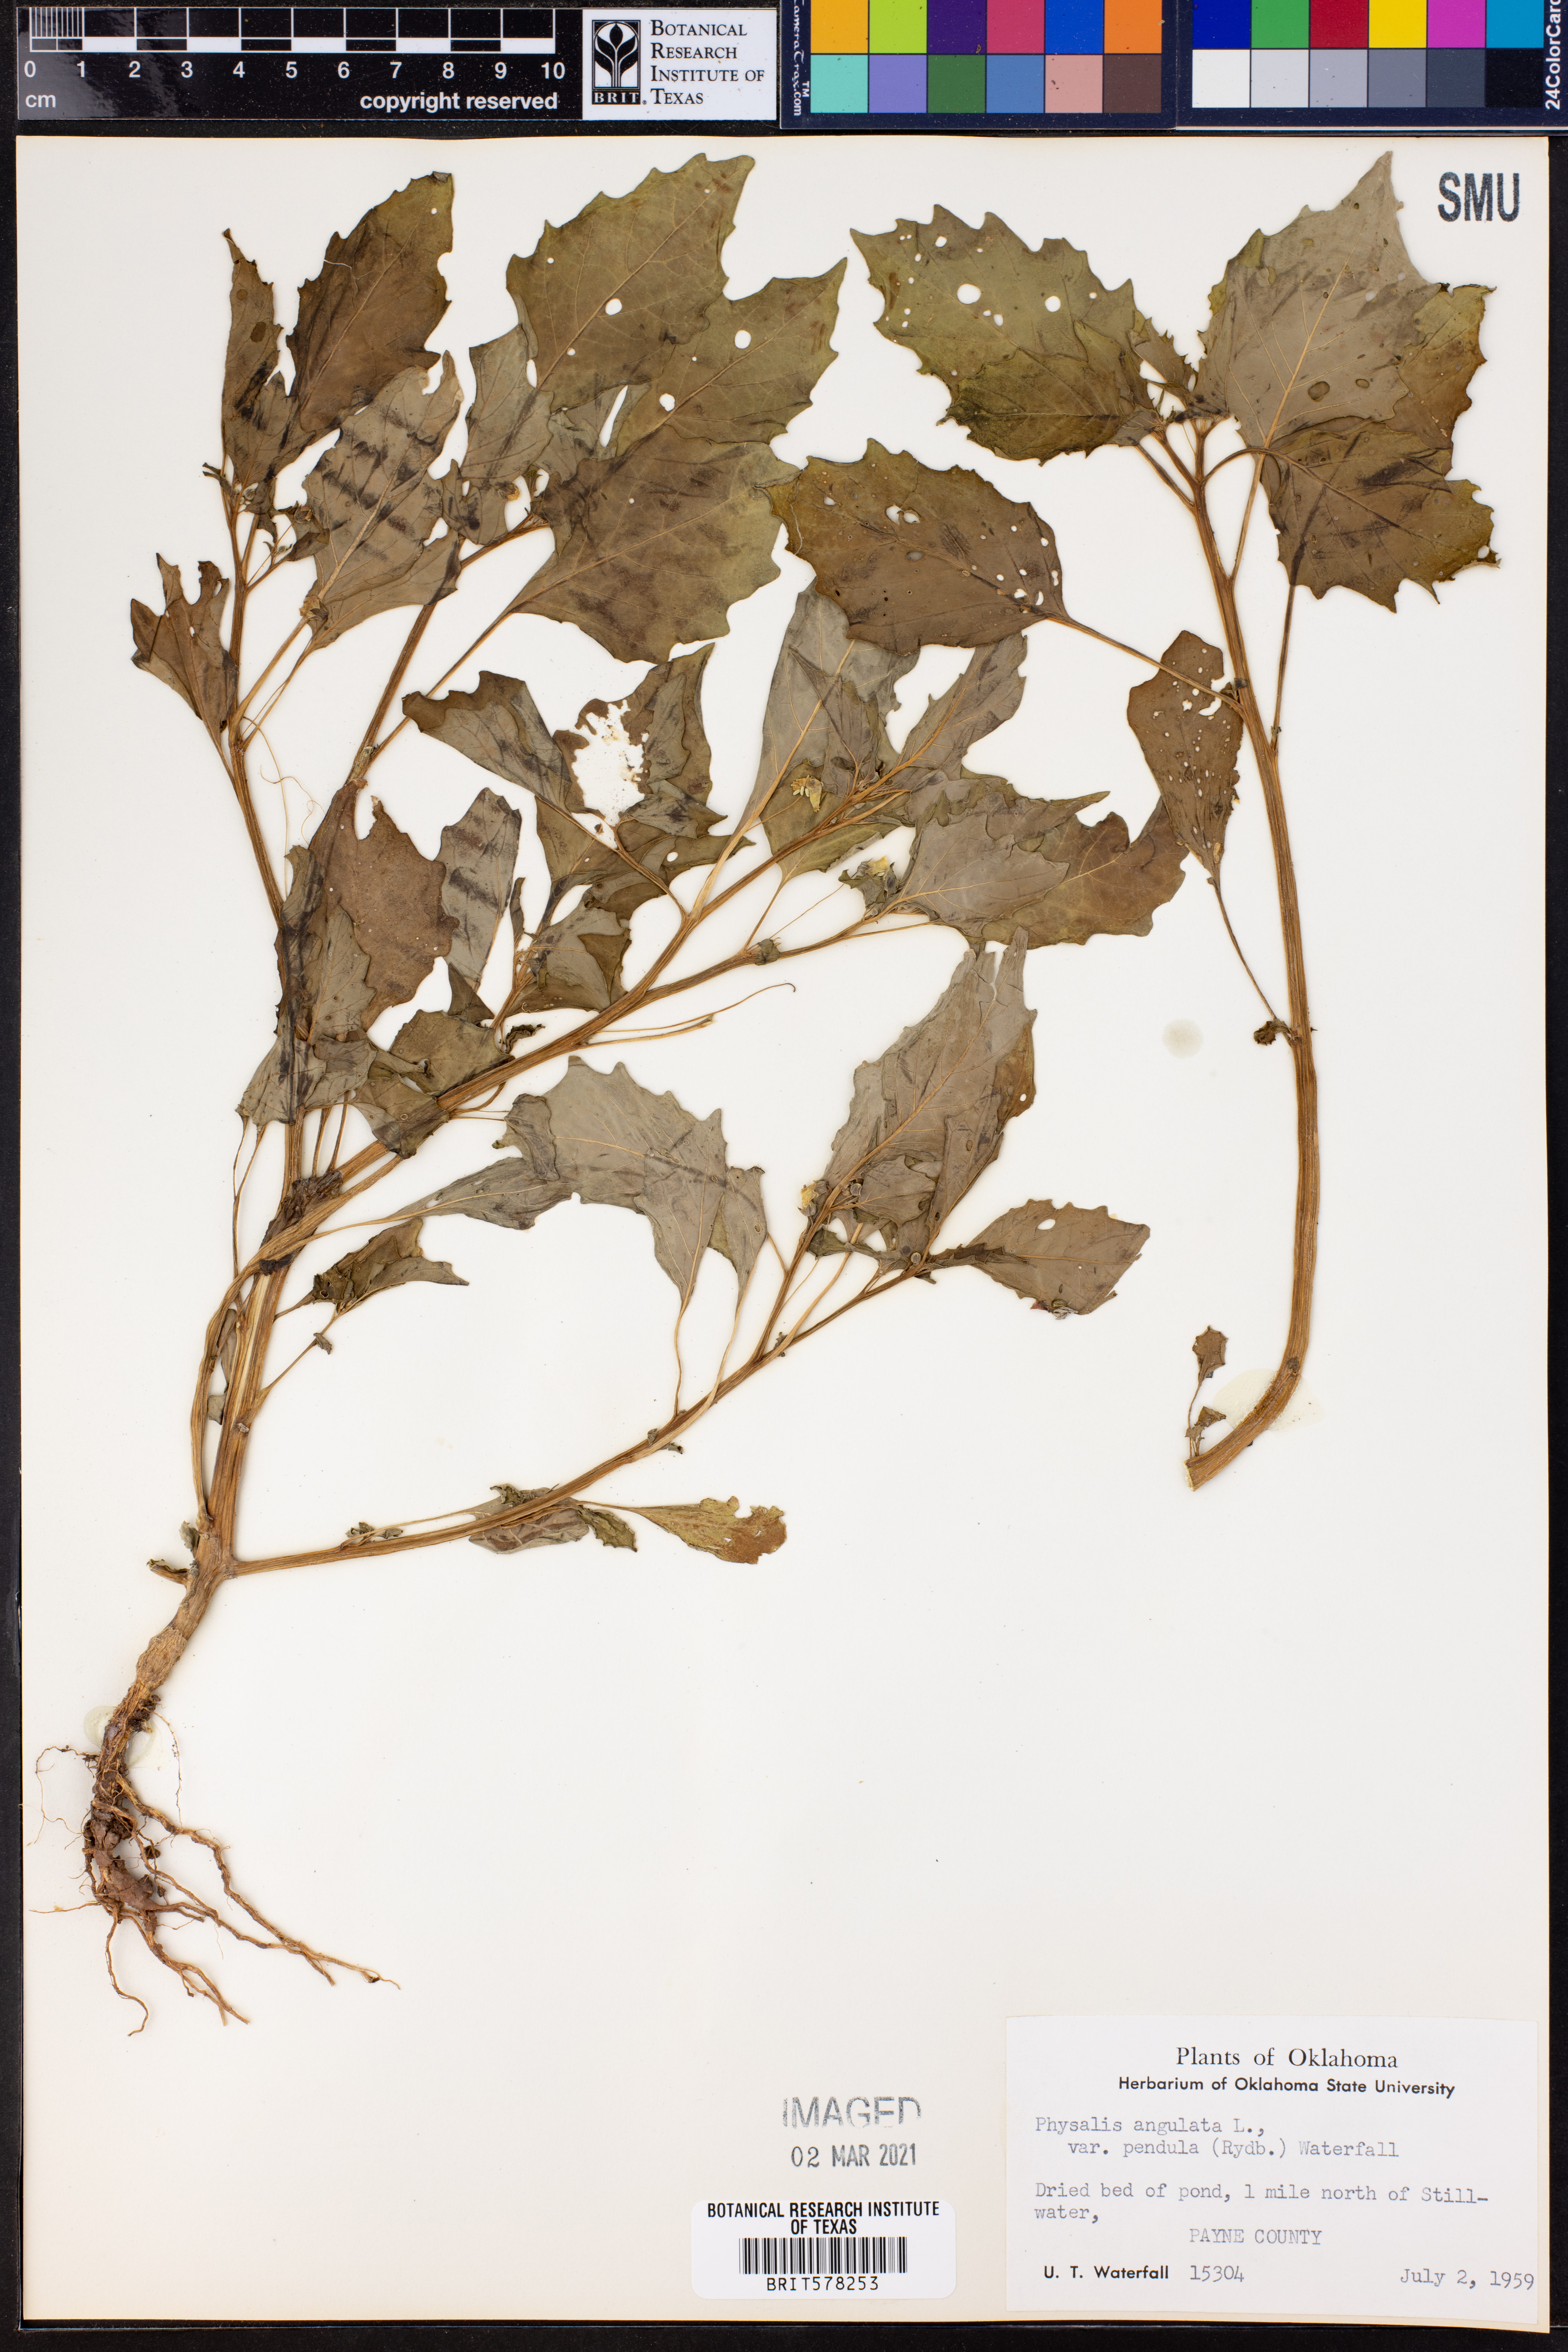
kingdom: Plantae
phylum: Tracheophyta
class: Magnoliopsida
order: Solanales
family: Solanaceae
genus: Physalis
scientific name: Physalis angulata
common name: Angular winter-cherry
